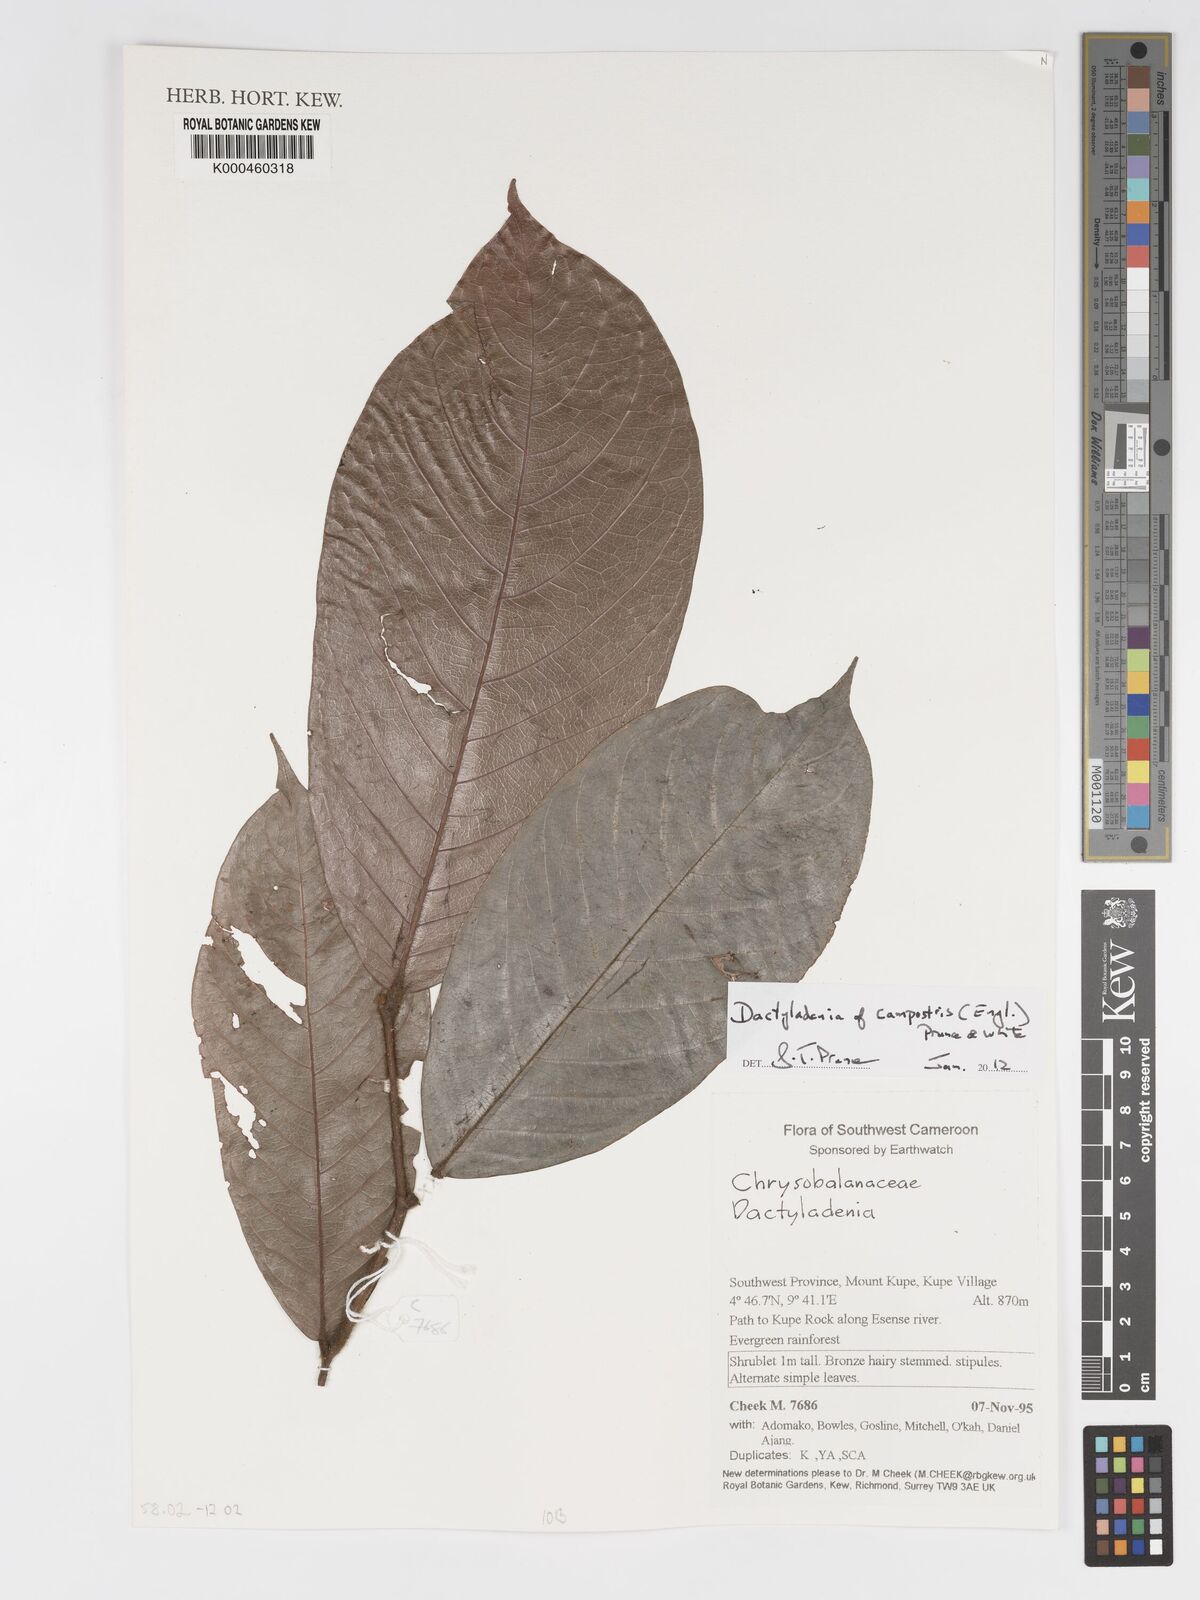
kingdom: Plantae
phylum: Tracheophyta
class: Magnoliopsida
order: Malpighiales
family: Chrysobalanaceae
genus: Dactyladenia
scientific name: Dactyladenia campestris
